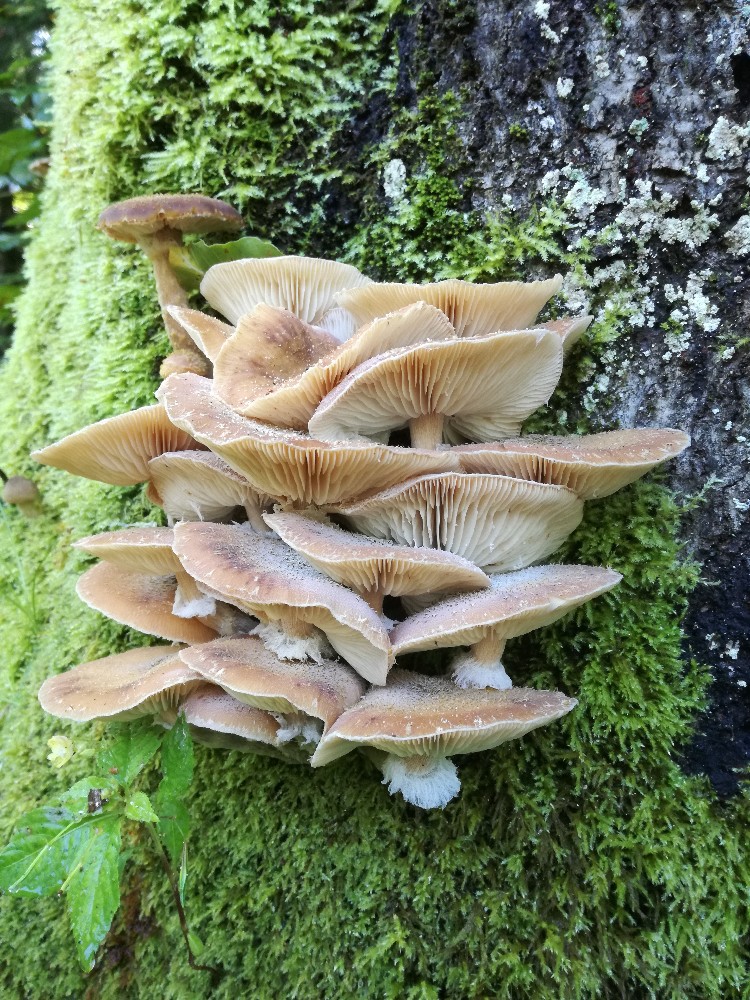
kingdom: Fungi
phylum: Basidiomycota
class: Agaricomycetes
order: Agaricales
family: Physalacriaceae
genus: Armillaria
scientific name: Armillaria lutea
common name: køllestokket honningsvamp
